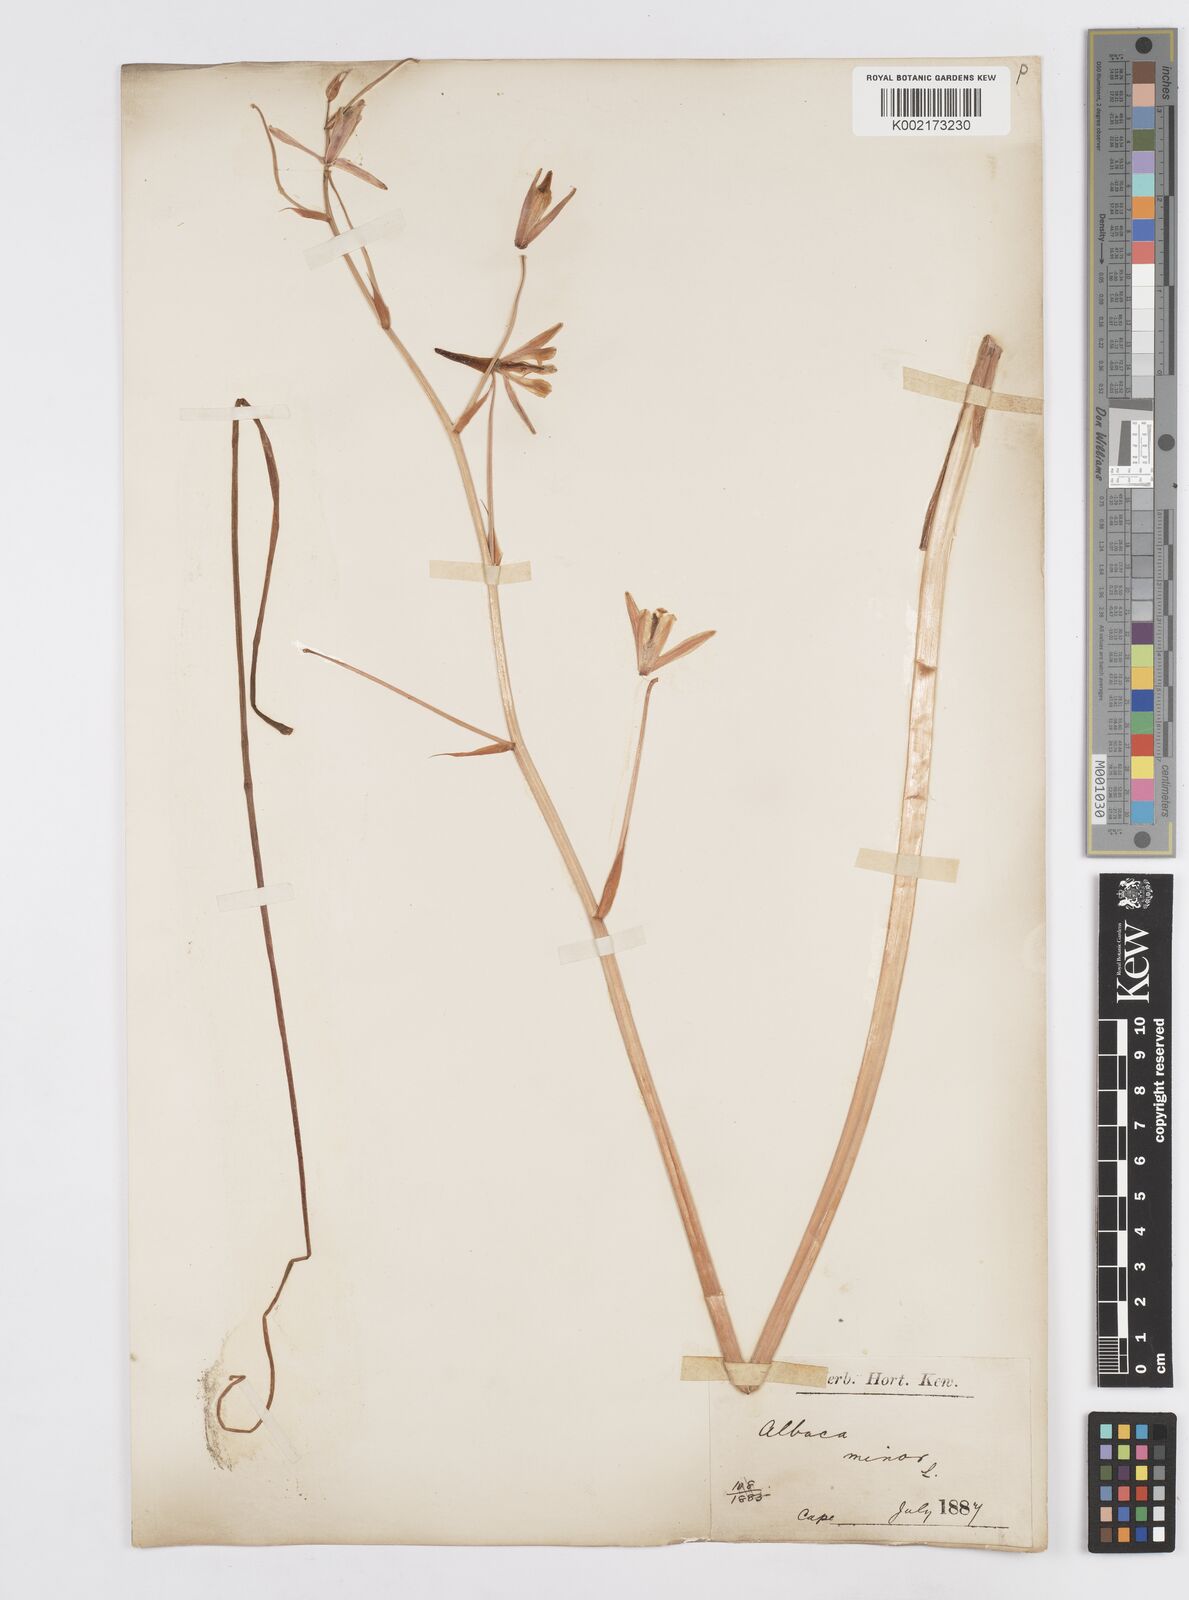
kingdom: Plantae
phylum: Tracheophyta
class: Liliopsida
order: Asparagales
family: Asparagaceae
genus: Albuca
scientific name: Albuca canadensis
